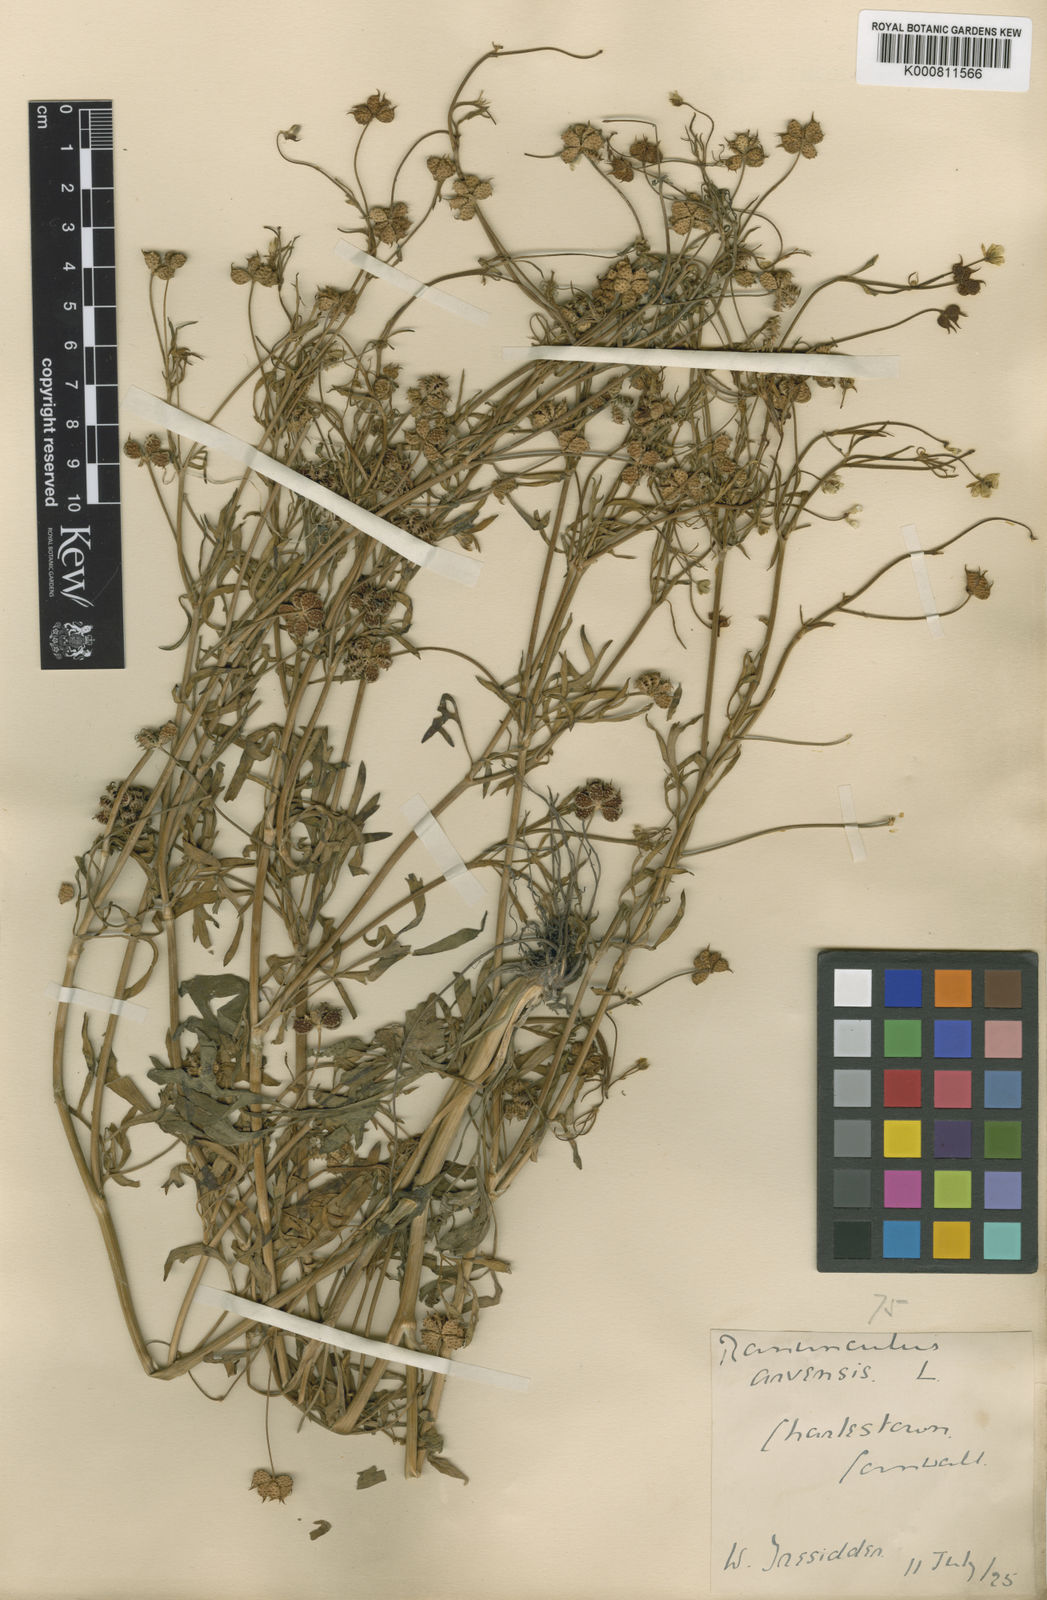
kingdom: Plantae
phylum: Tracheophyta
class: Magnoliopsida
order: Ranunculales
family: Ranunculaceae
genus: Ranunculus
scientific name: Ranunculus arvensis
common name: Corn buttercup
